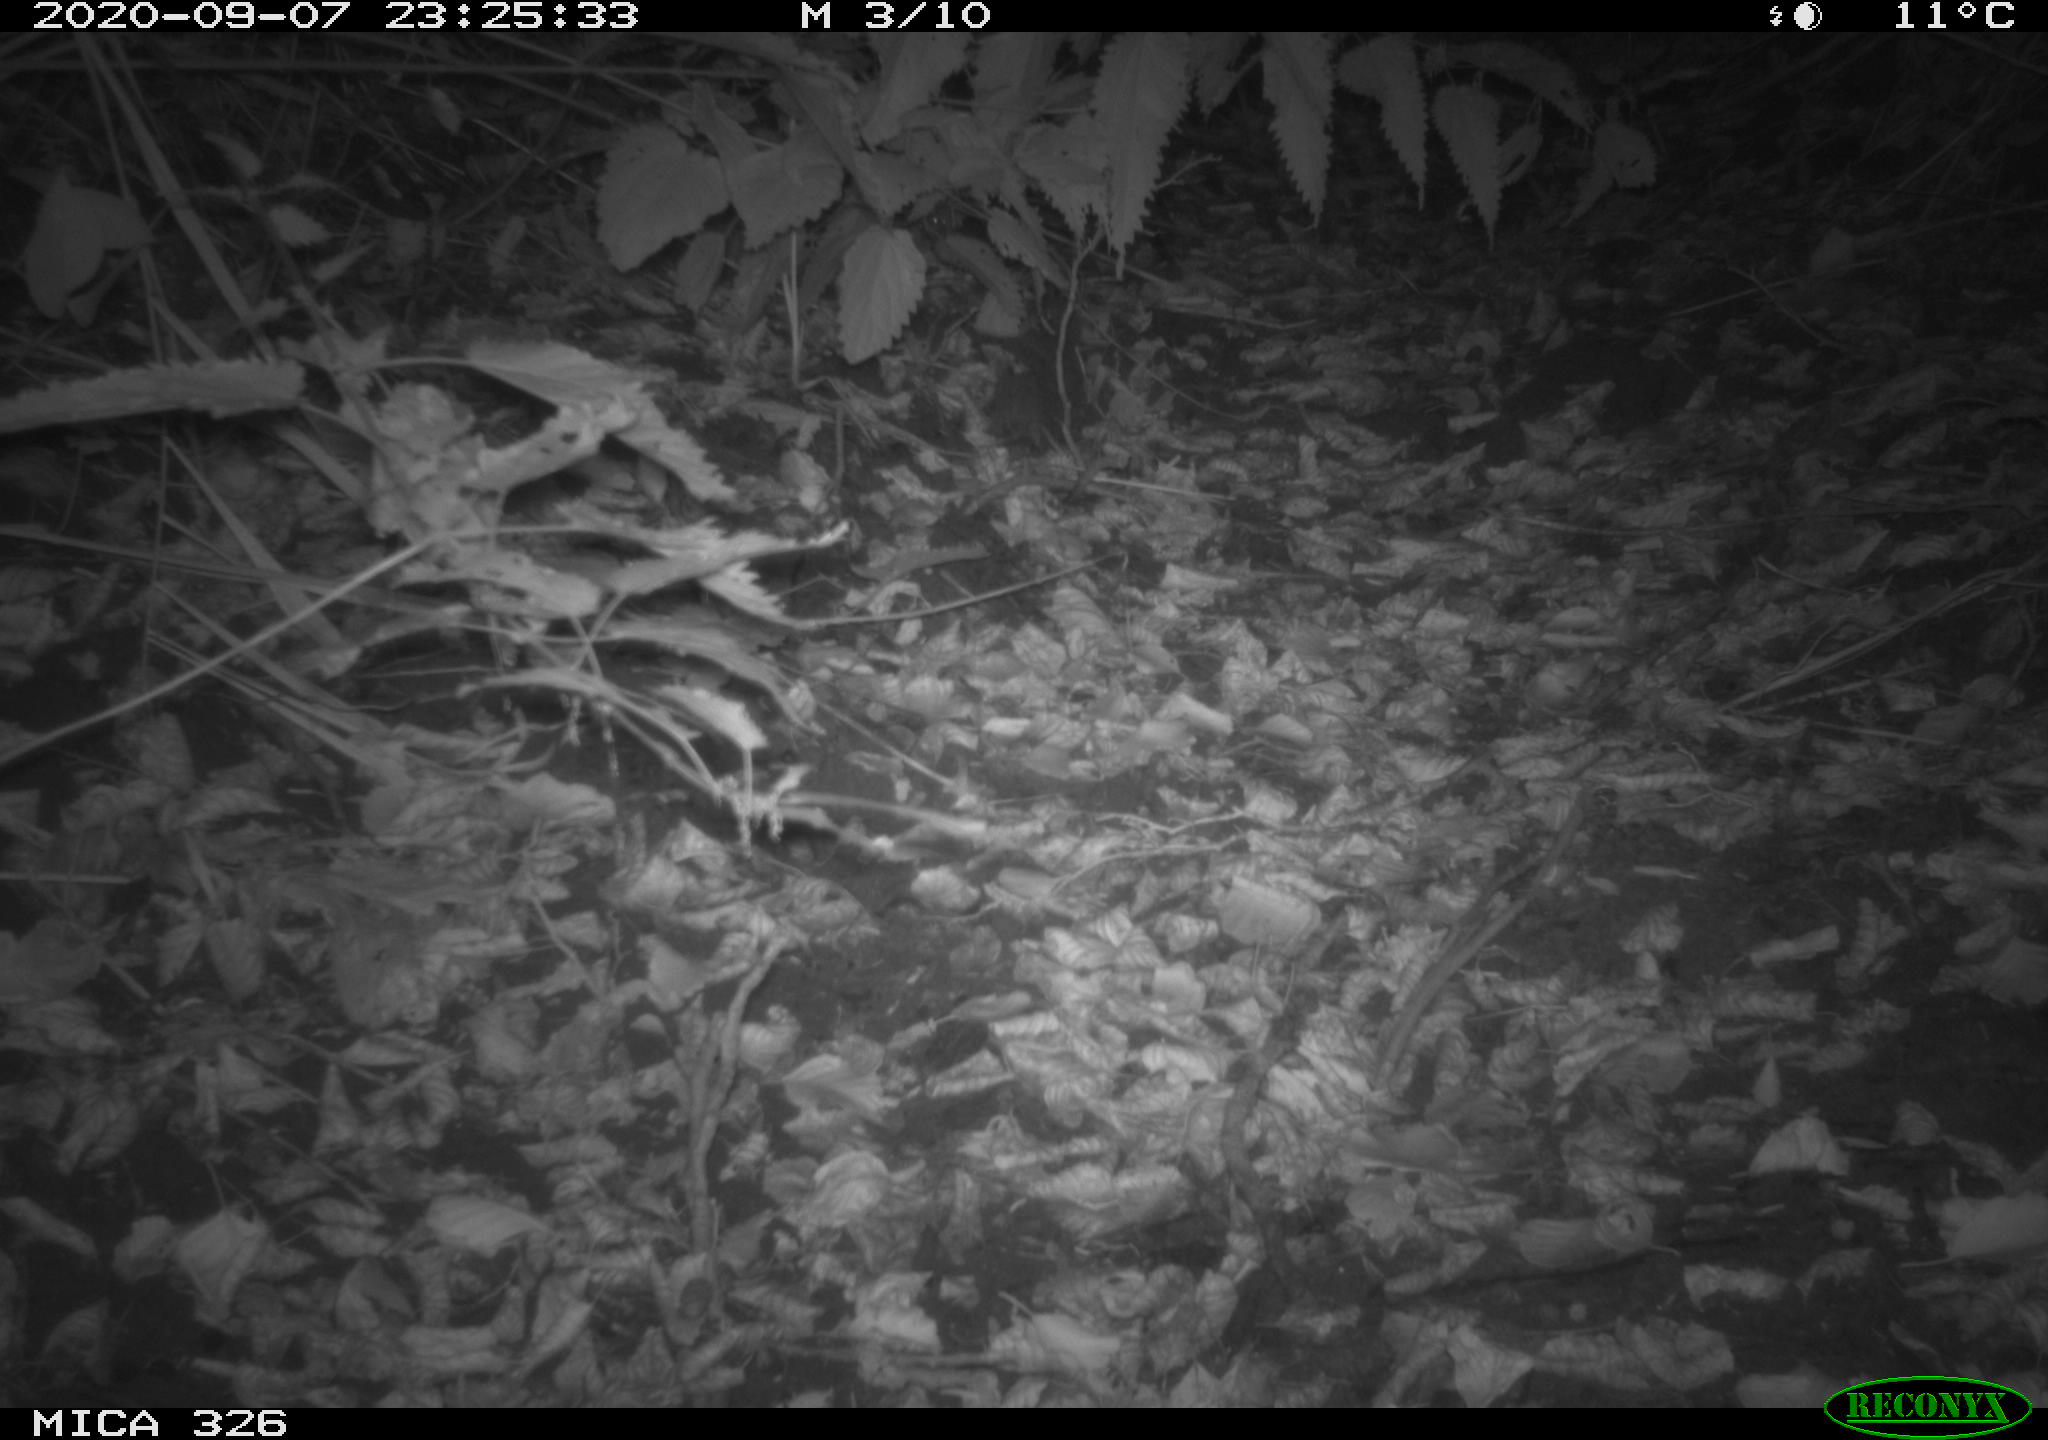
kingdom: Animalia
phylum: Chordata
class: Mammalia
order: Carnivora
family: Mustelidae
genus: Lutra
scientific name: Lutra lutra
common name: European otter
